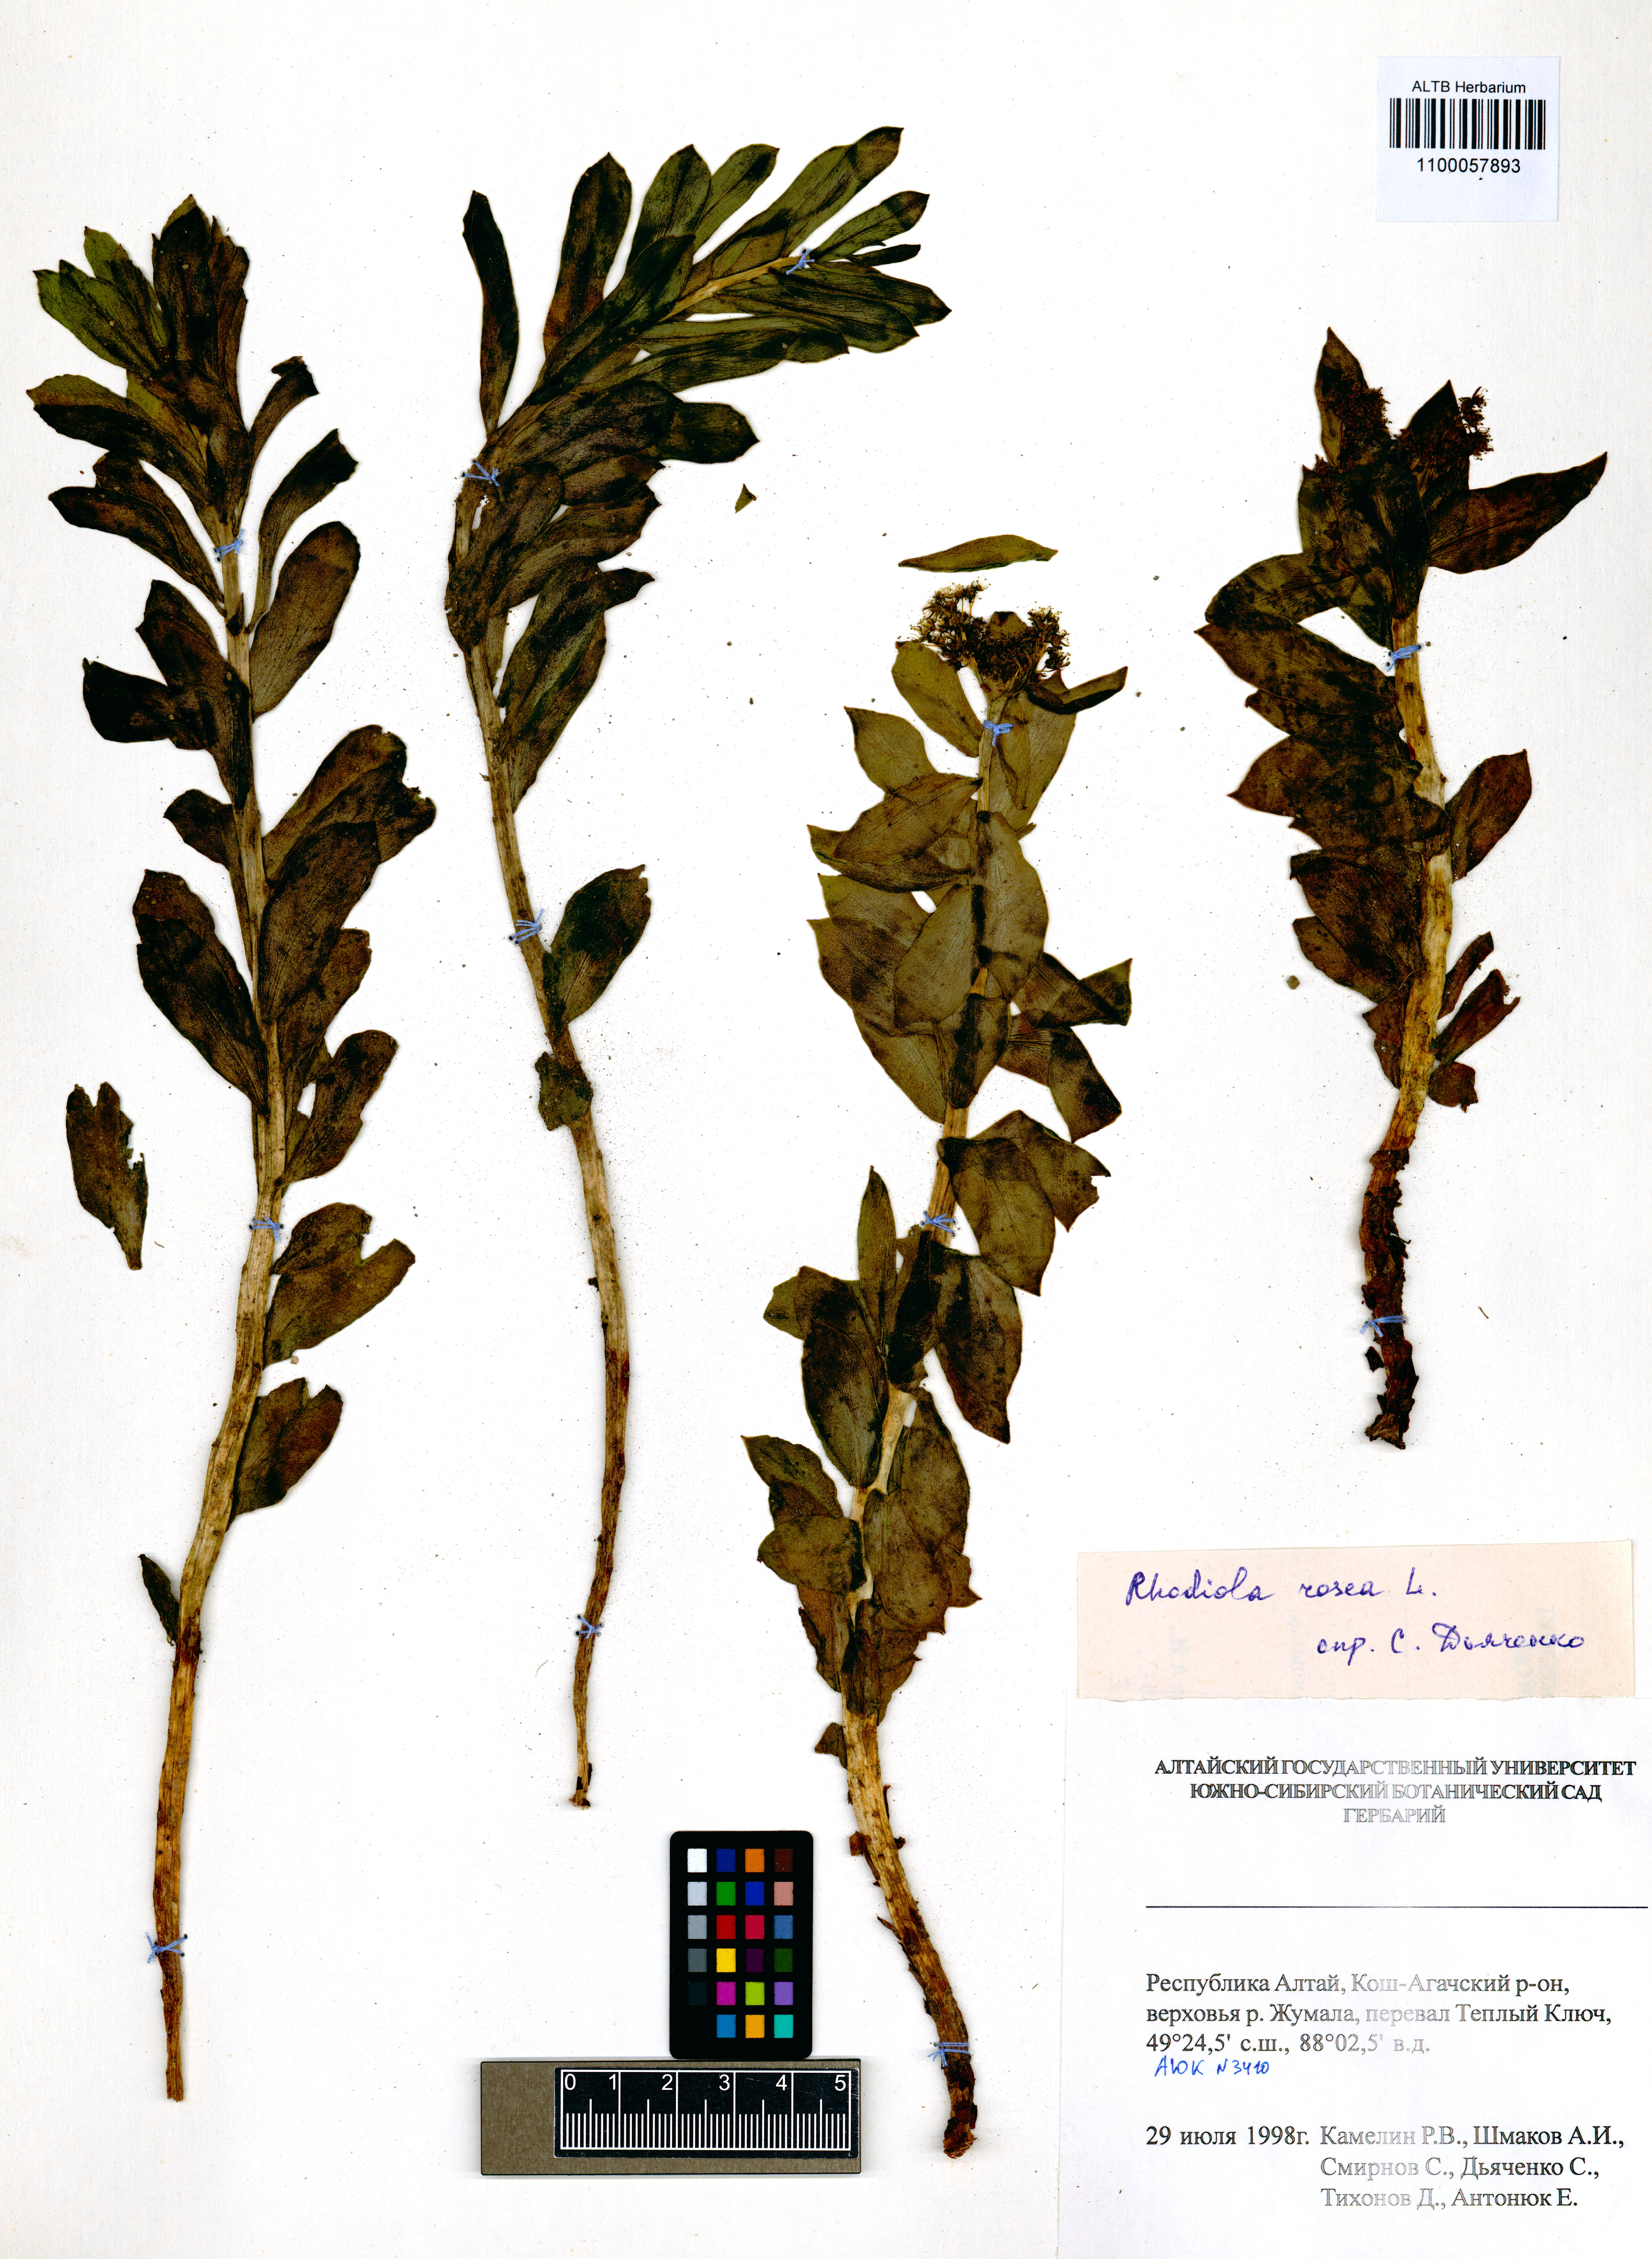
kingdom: Plantae
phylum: Tracheophyta
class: Magnoliopsida
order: Saxifragales
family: Crassulaceae
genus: Rhodiola
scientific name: Rhodiola rosea
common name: Roseroot
